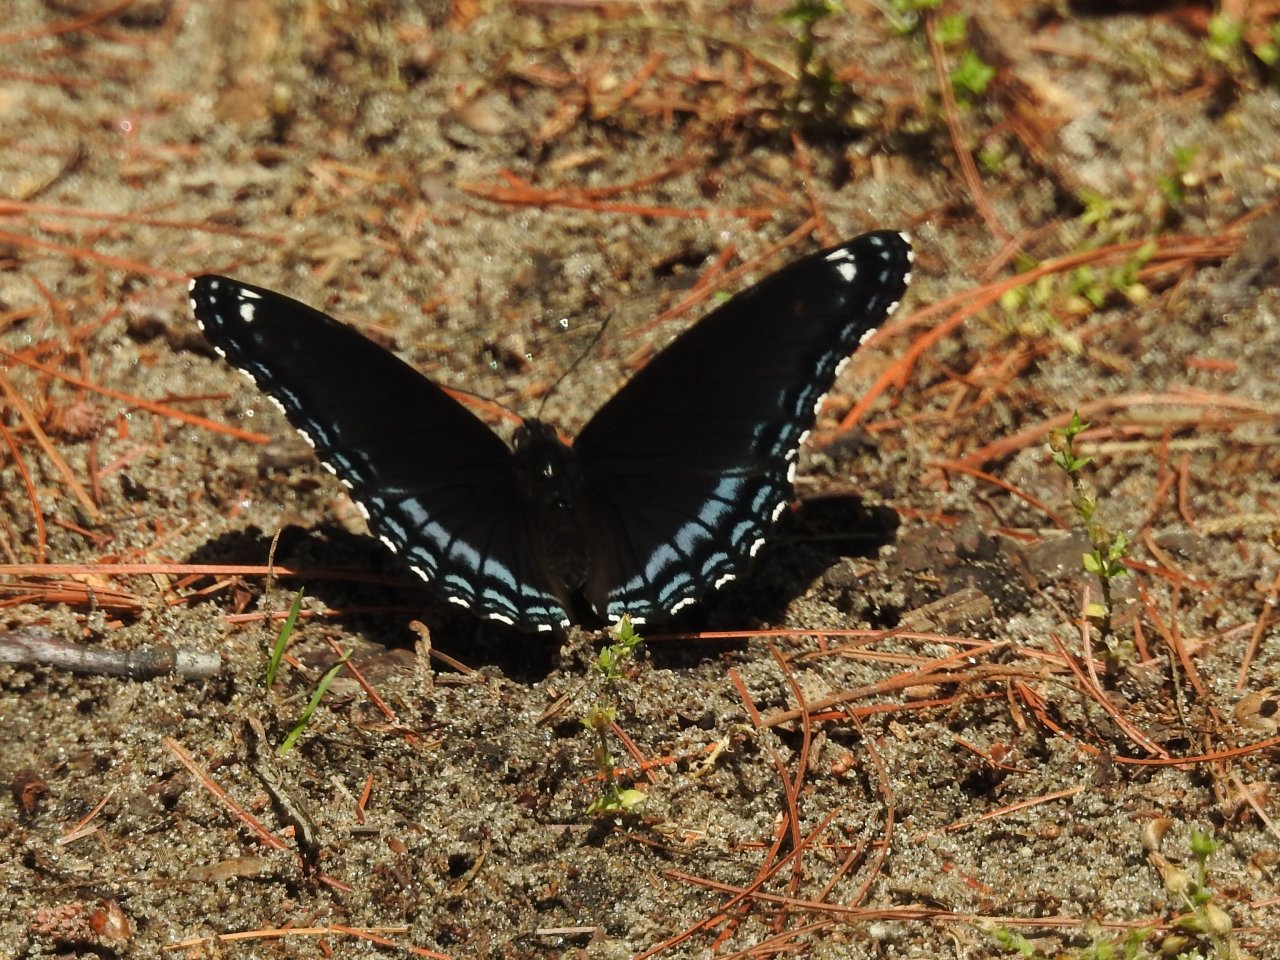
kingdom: Animalia
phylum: Arthropoda
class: Insecta
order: Lepidoptera
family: Nymphalidae
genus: Limenitis
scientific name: Limenitis astyanax
